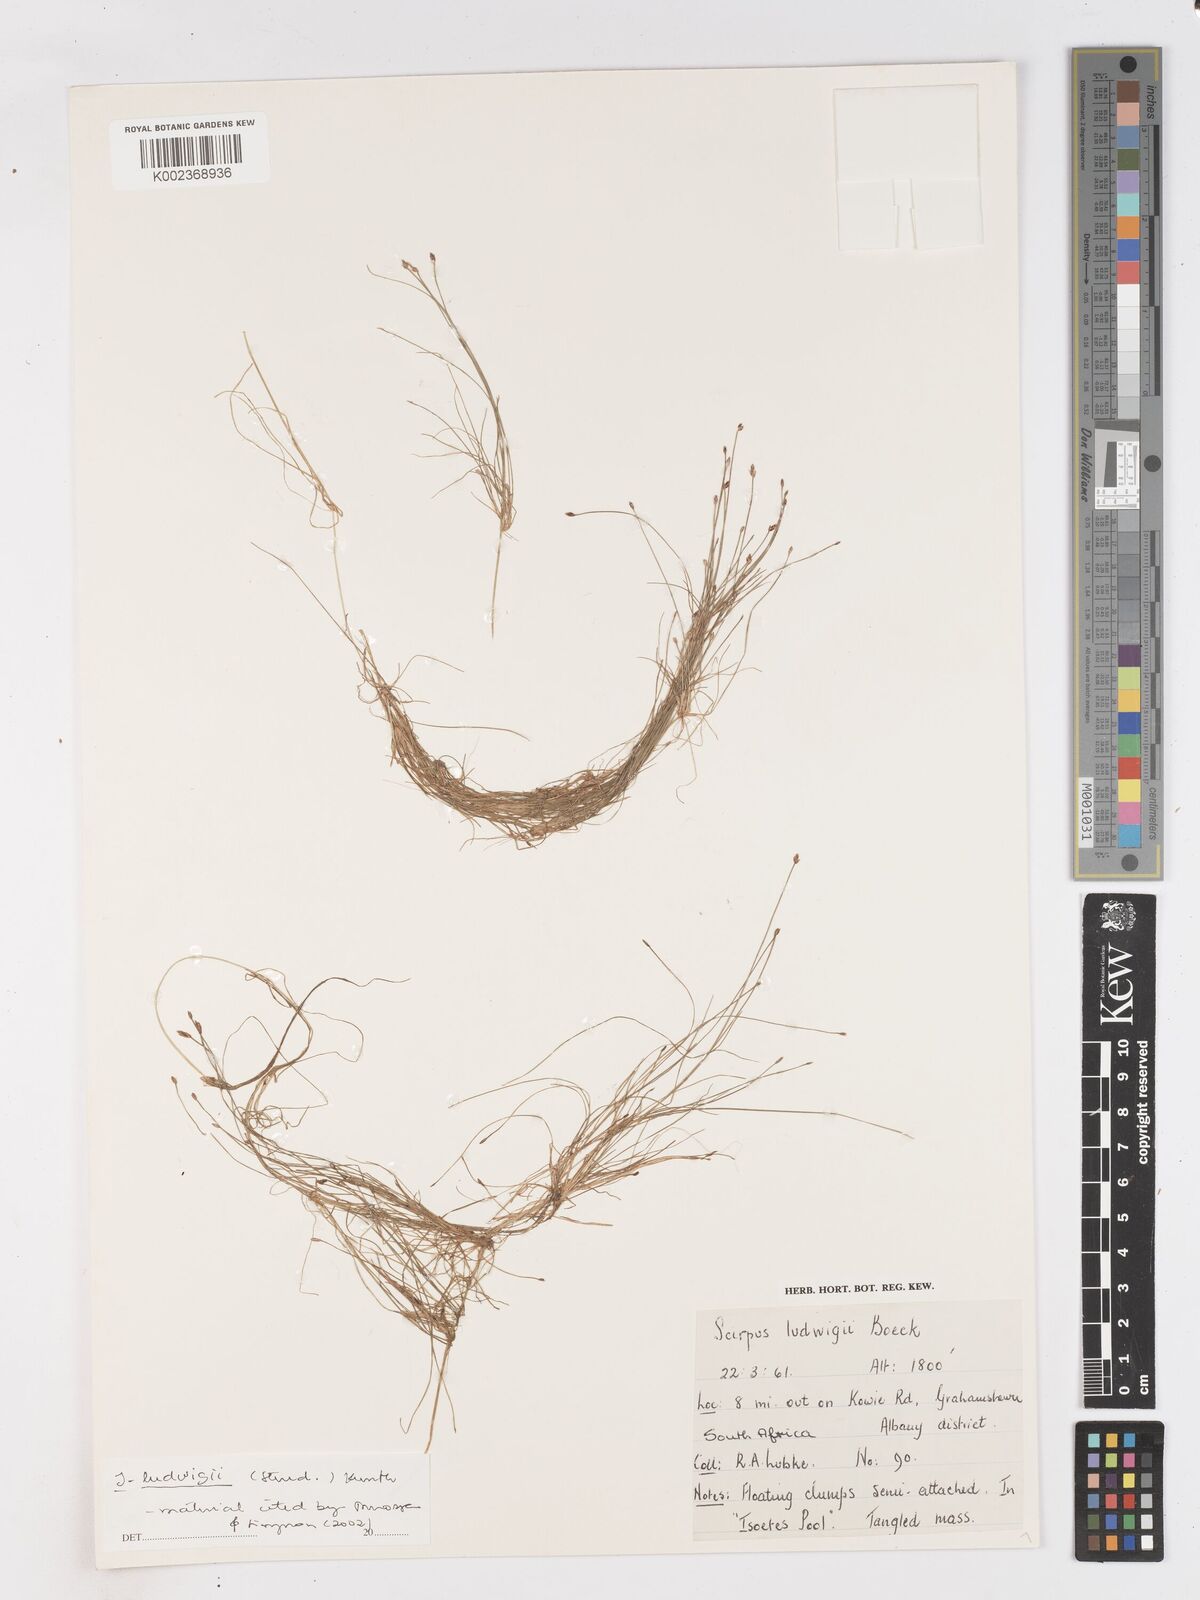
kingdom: Plantae
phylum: Tracheophyta
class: Liliopsida
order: Poales
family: Cyperaceae
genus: Isolepis
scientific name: Isolepis ludwigii
